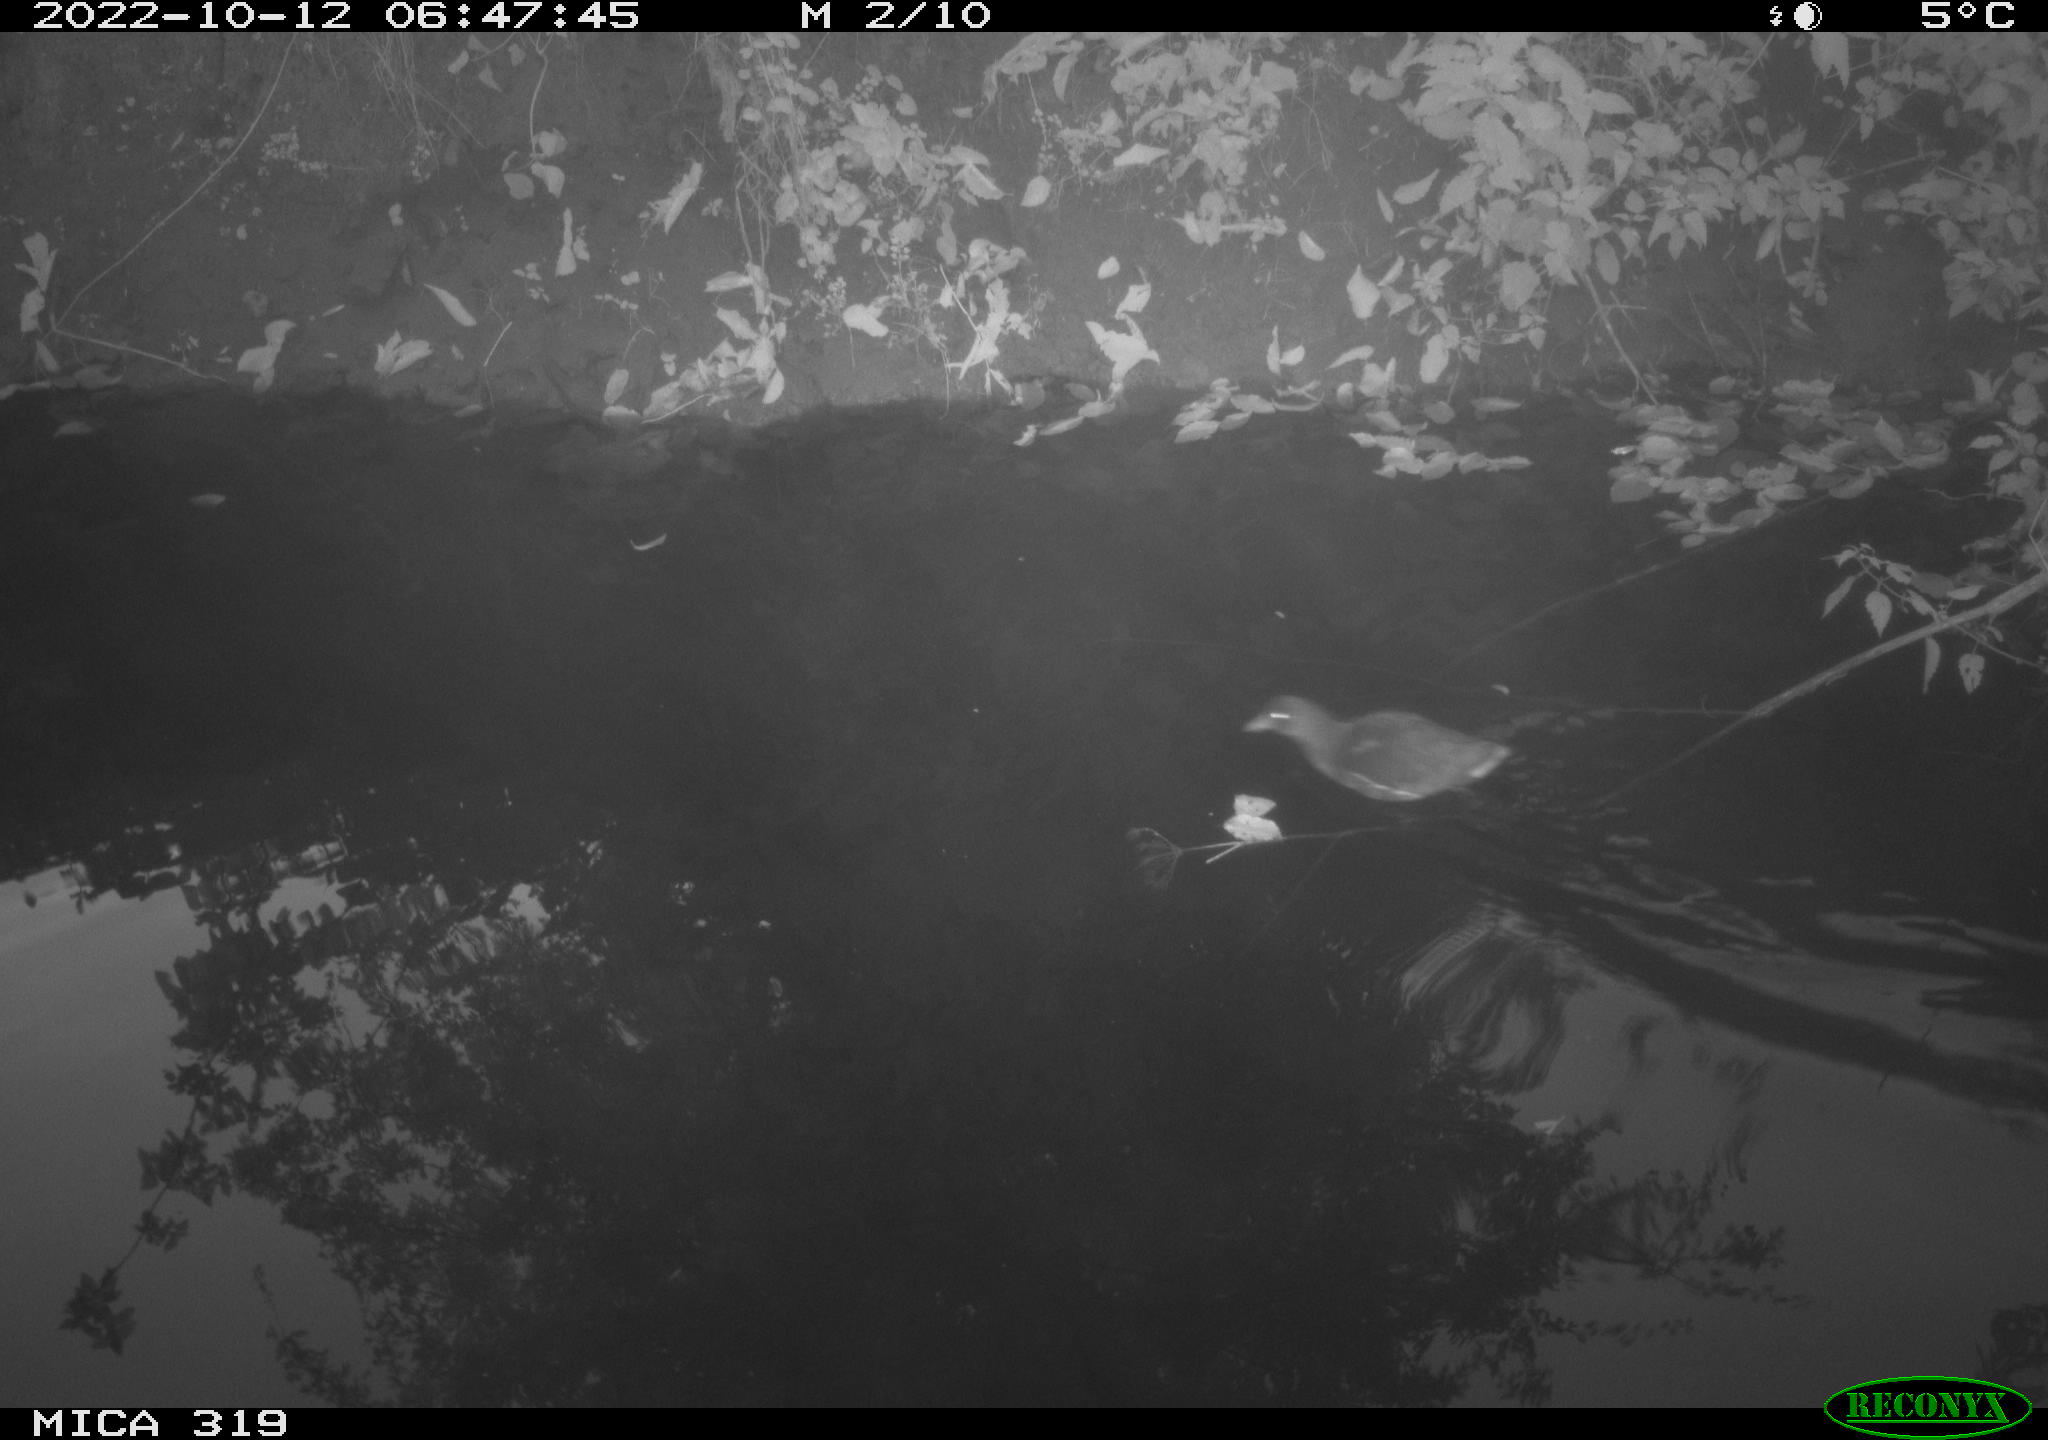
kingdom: Animalia
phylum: Chordata
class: Aves
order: Gruiformes
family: Rallidae
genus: Gallinula
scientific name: Gallinula chloropus
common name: Common moorhen
